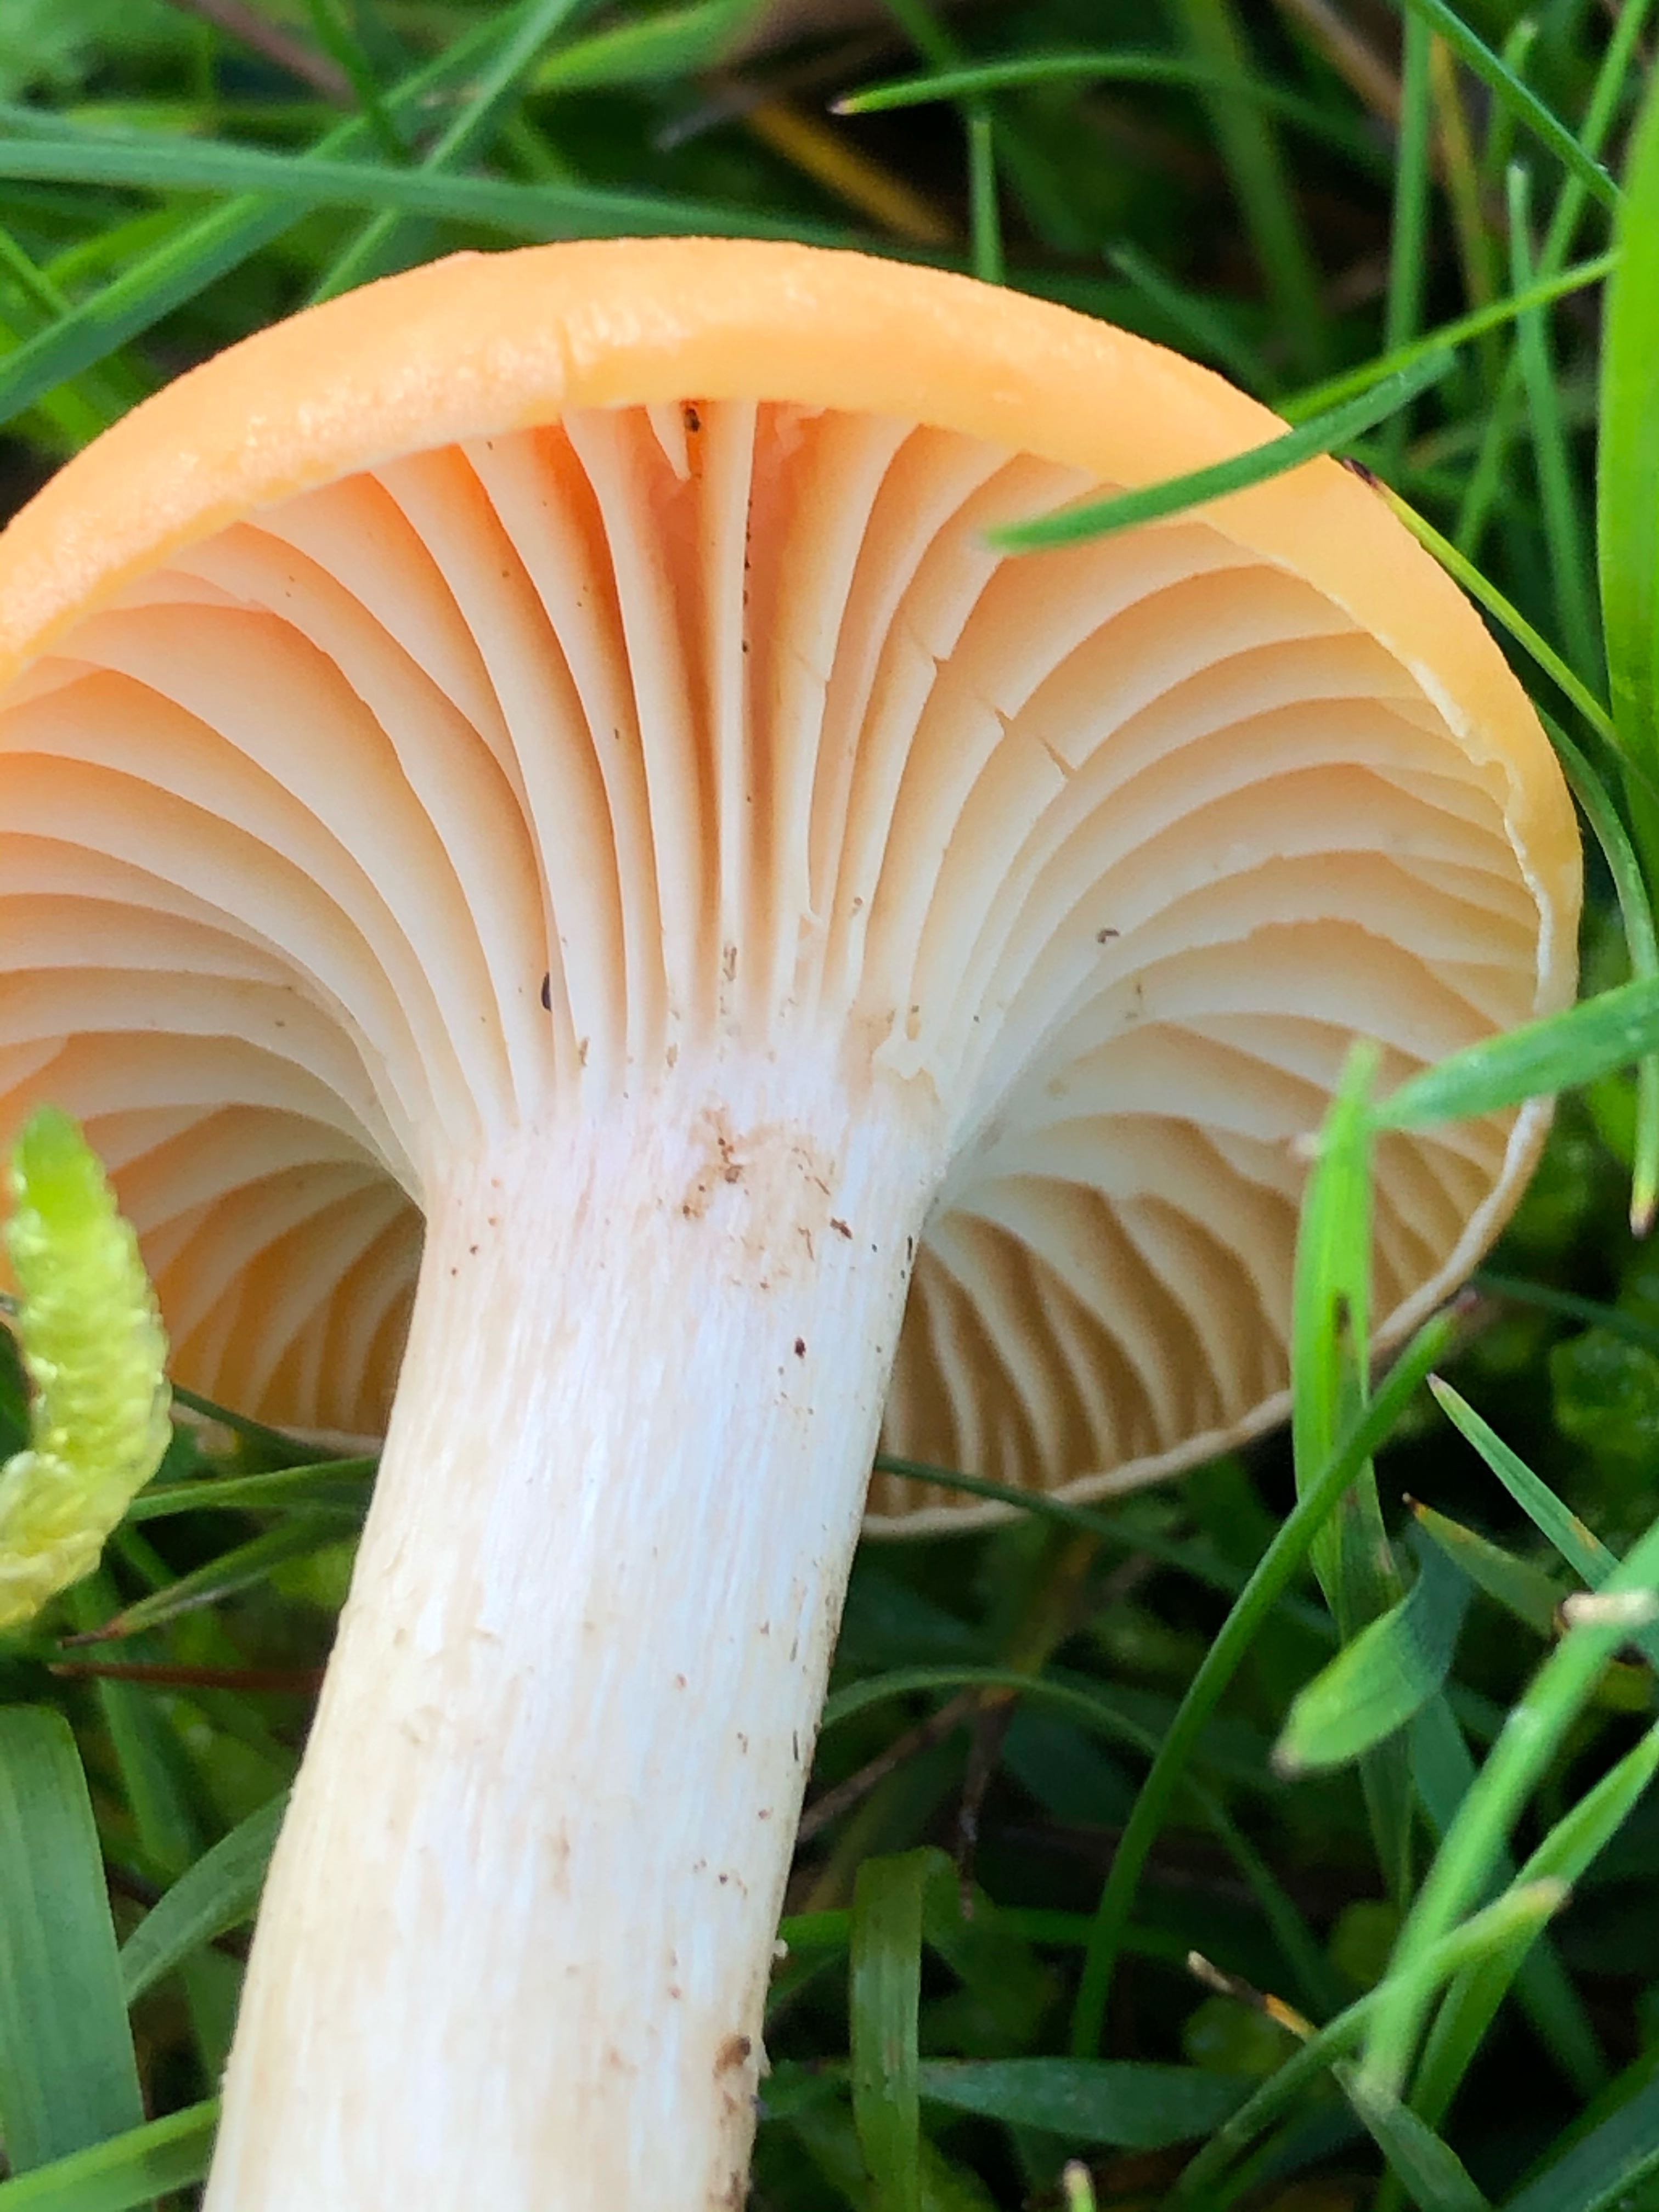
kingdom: Fungi
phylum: Basidiomycota
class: Agaricomycetes
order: Agaricales
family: Hygrophoraceae
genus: Cuphophyllus
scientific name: Cuphophyllus pratensis
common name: eng-vokshat
